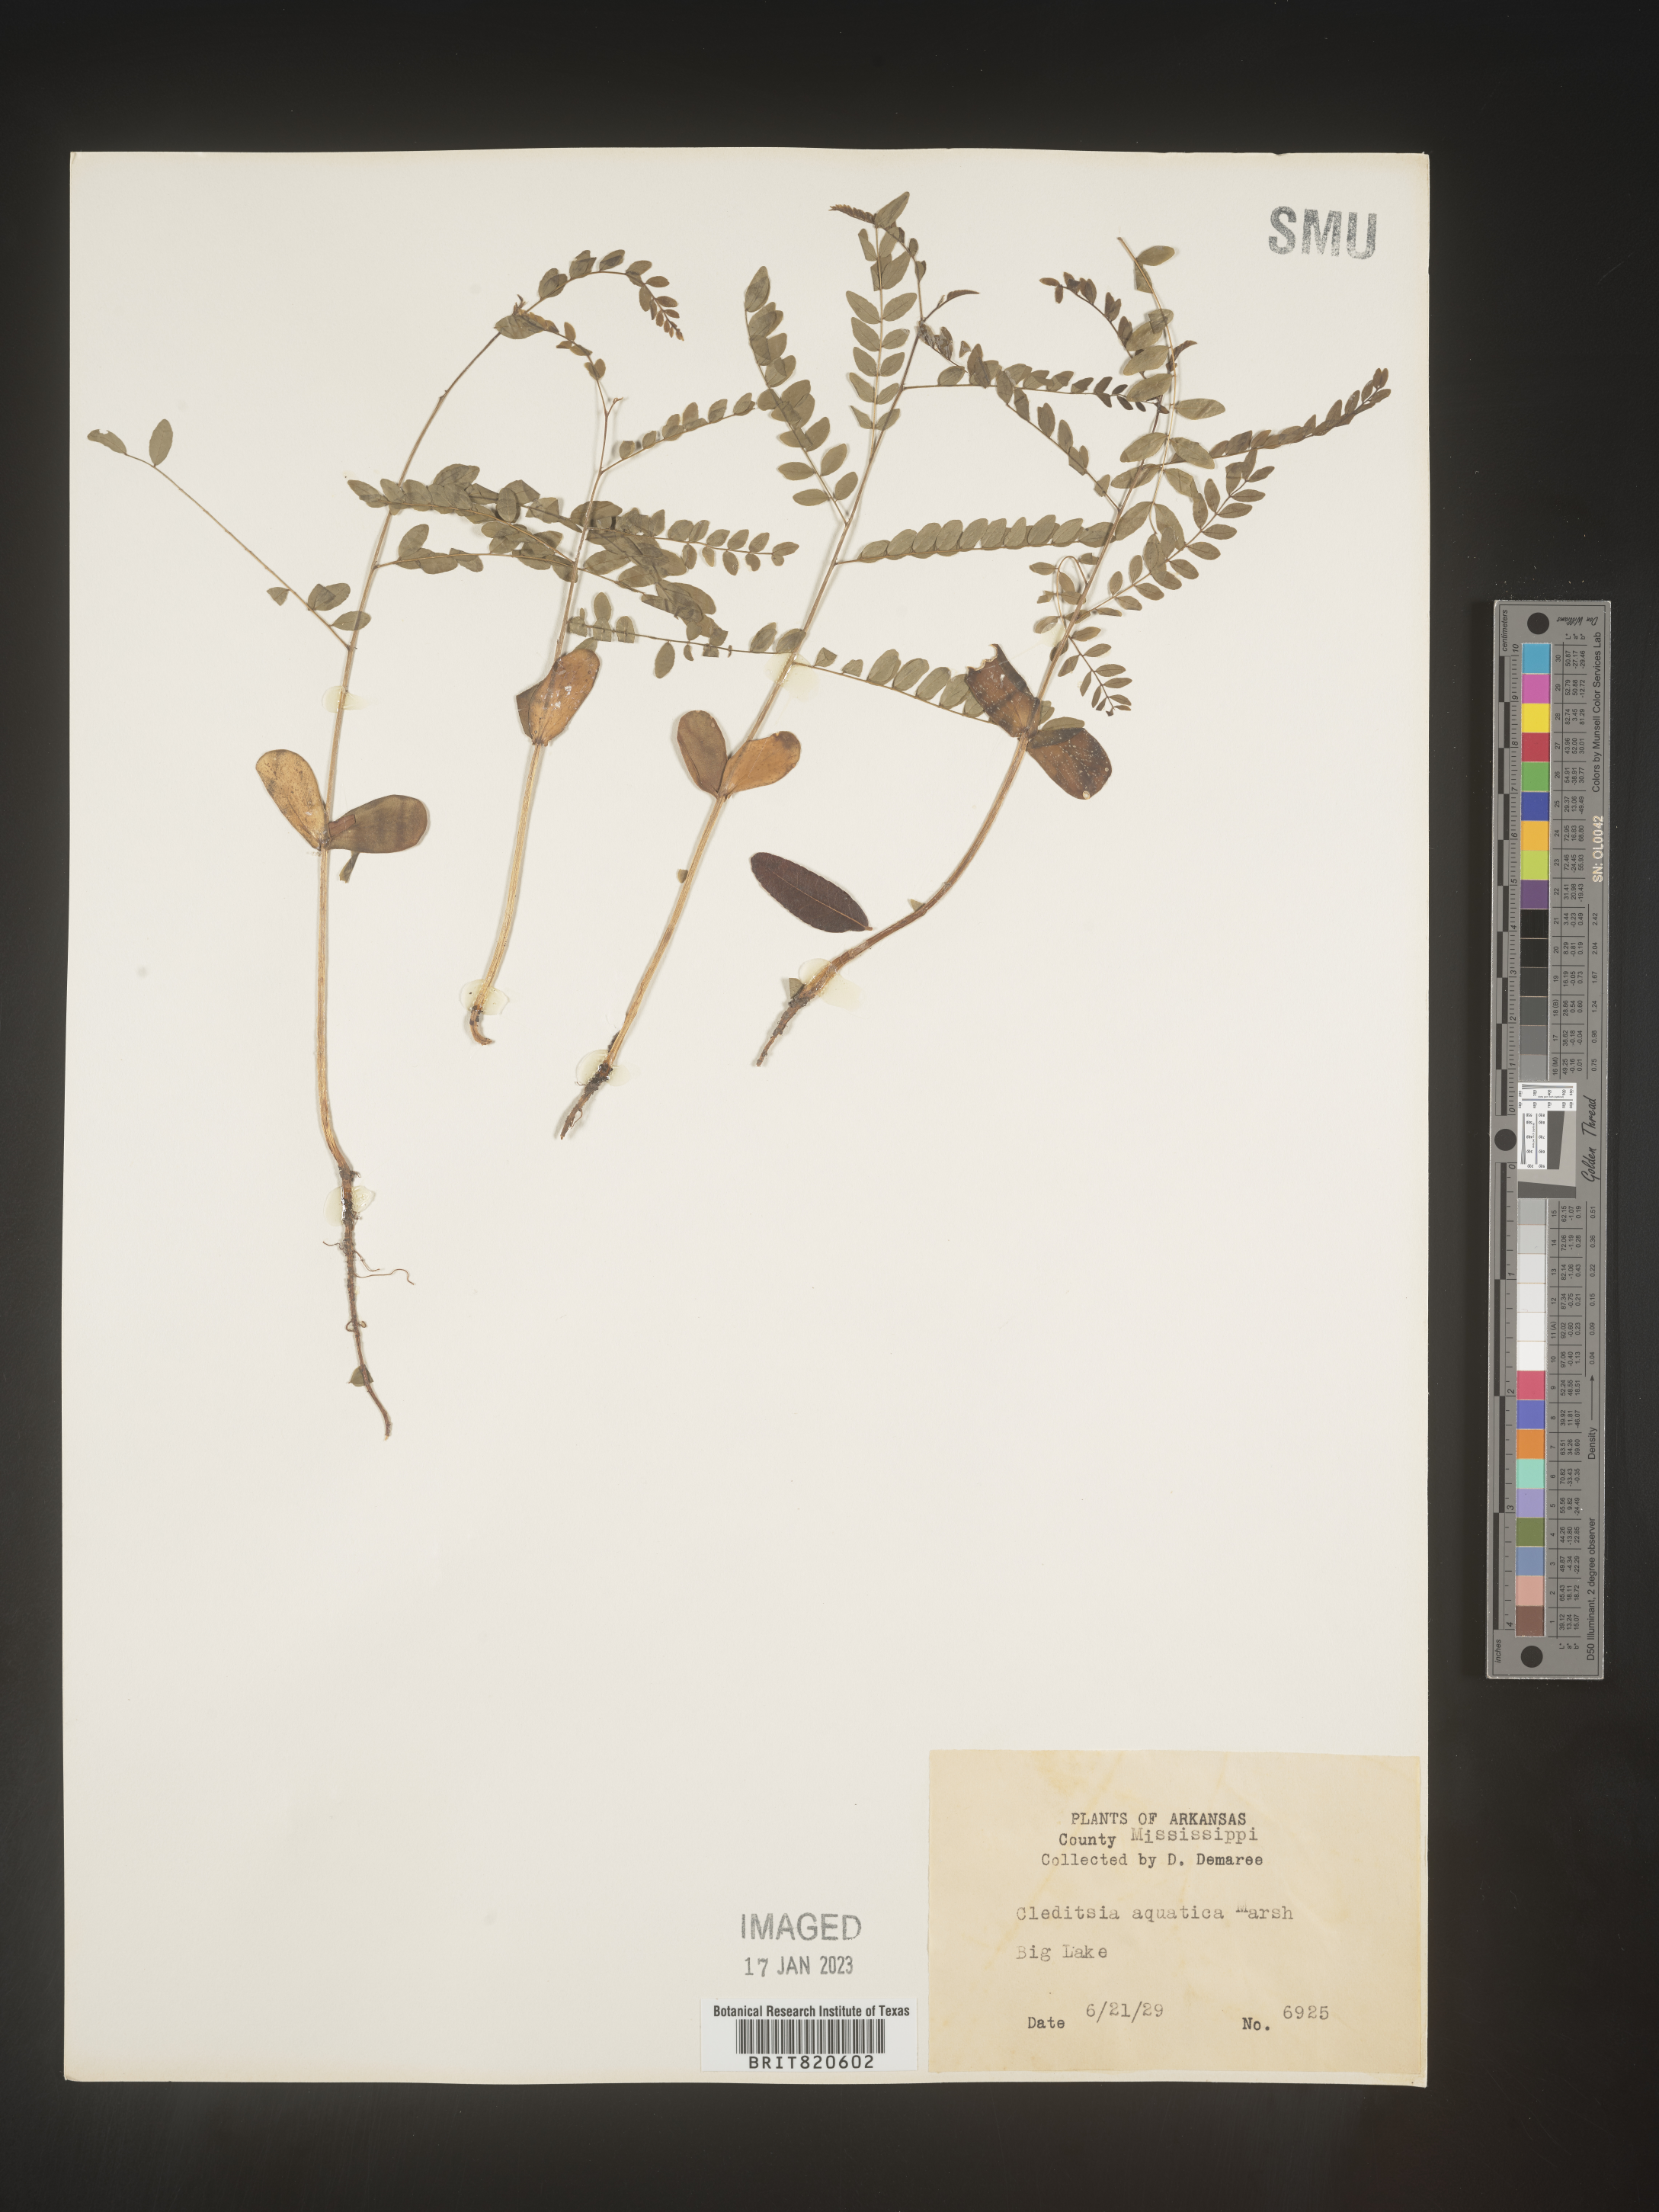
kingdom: Plantae
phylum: Tracheophyta
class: Magnoliopsida
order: Fabales
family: Fabaceae
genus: Gleditsia
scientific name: Gleditsia aquatica
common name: Swamp-locust
